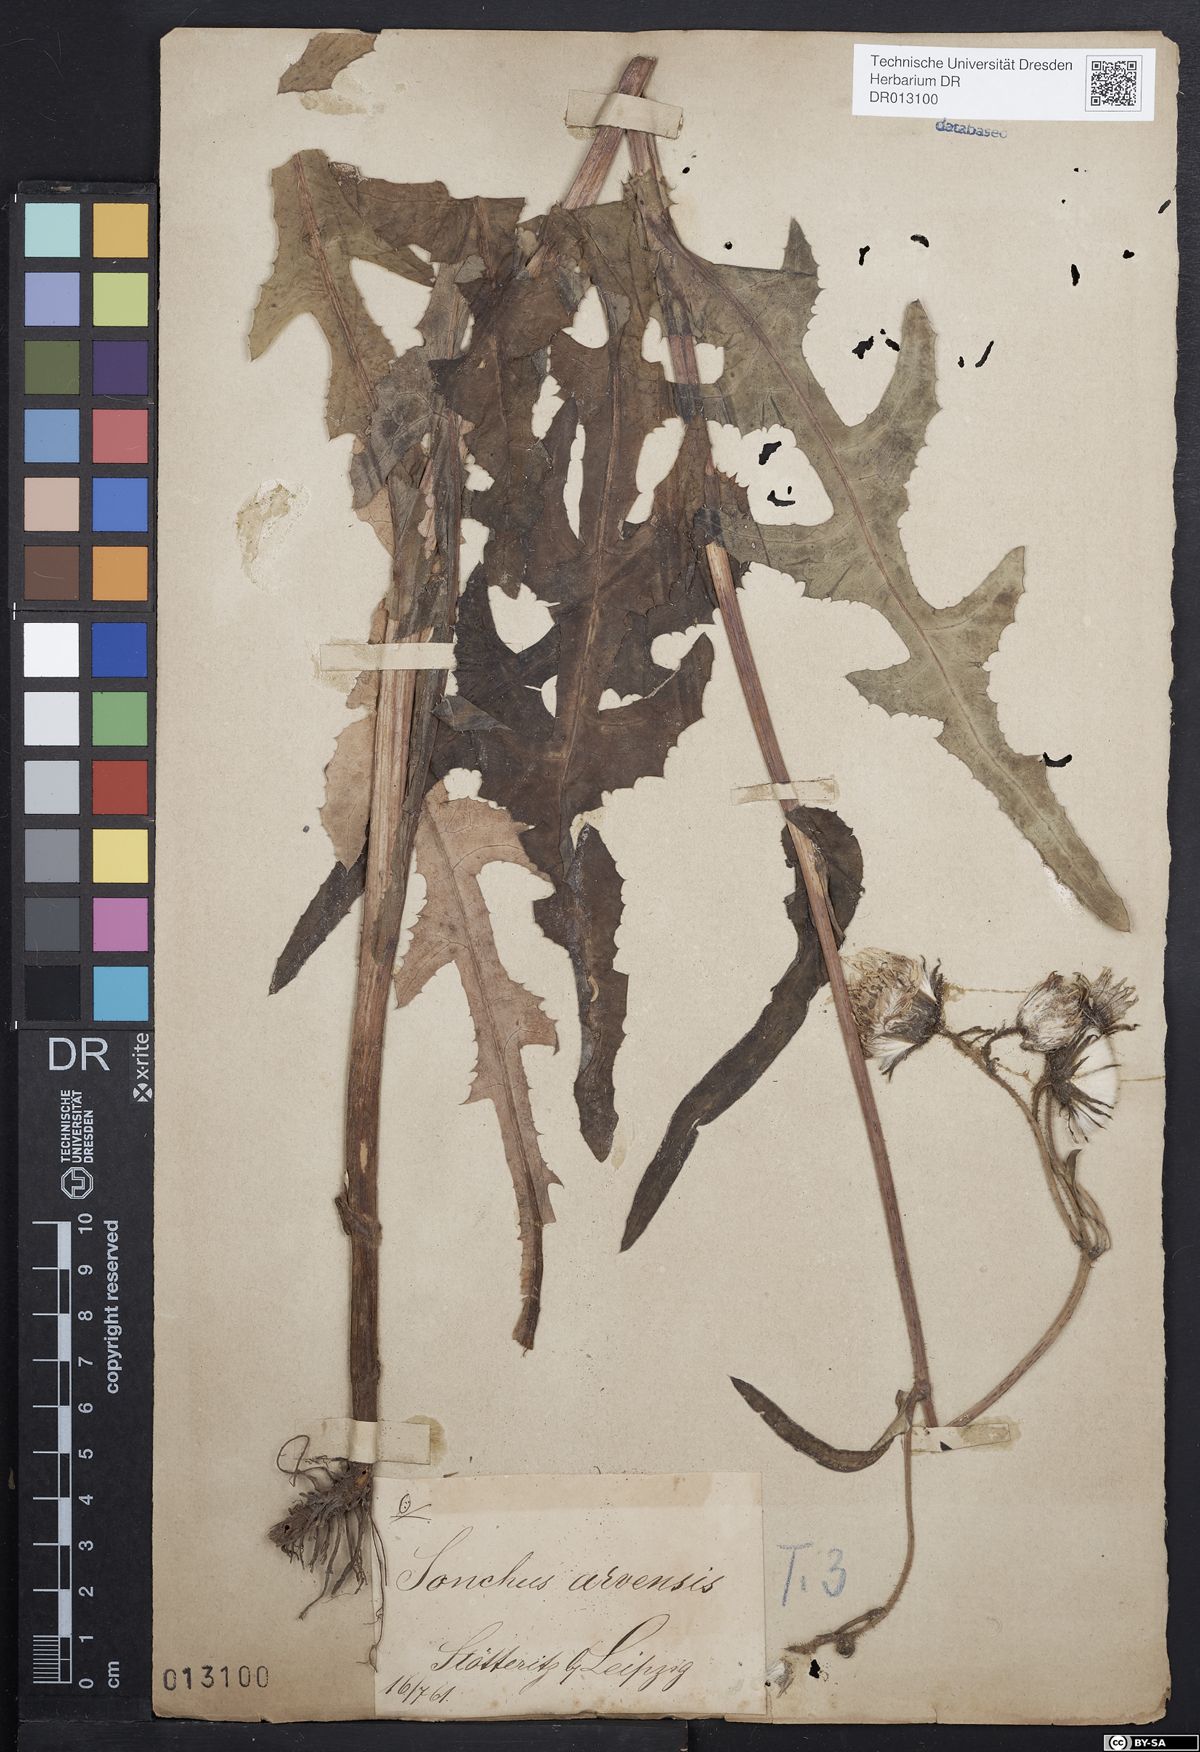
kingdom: Plantae
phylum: Tracheophyta
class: Magnoliopsida
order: Asterales
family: Asteraceae
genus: Sonchus
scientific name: Sonchus arvensis
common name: Perennial sow-thistle
